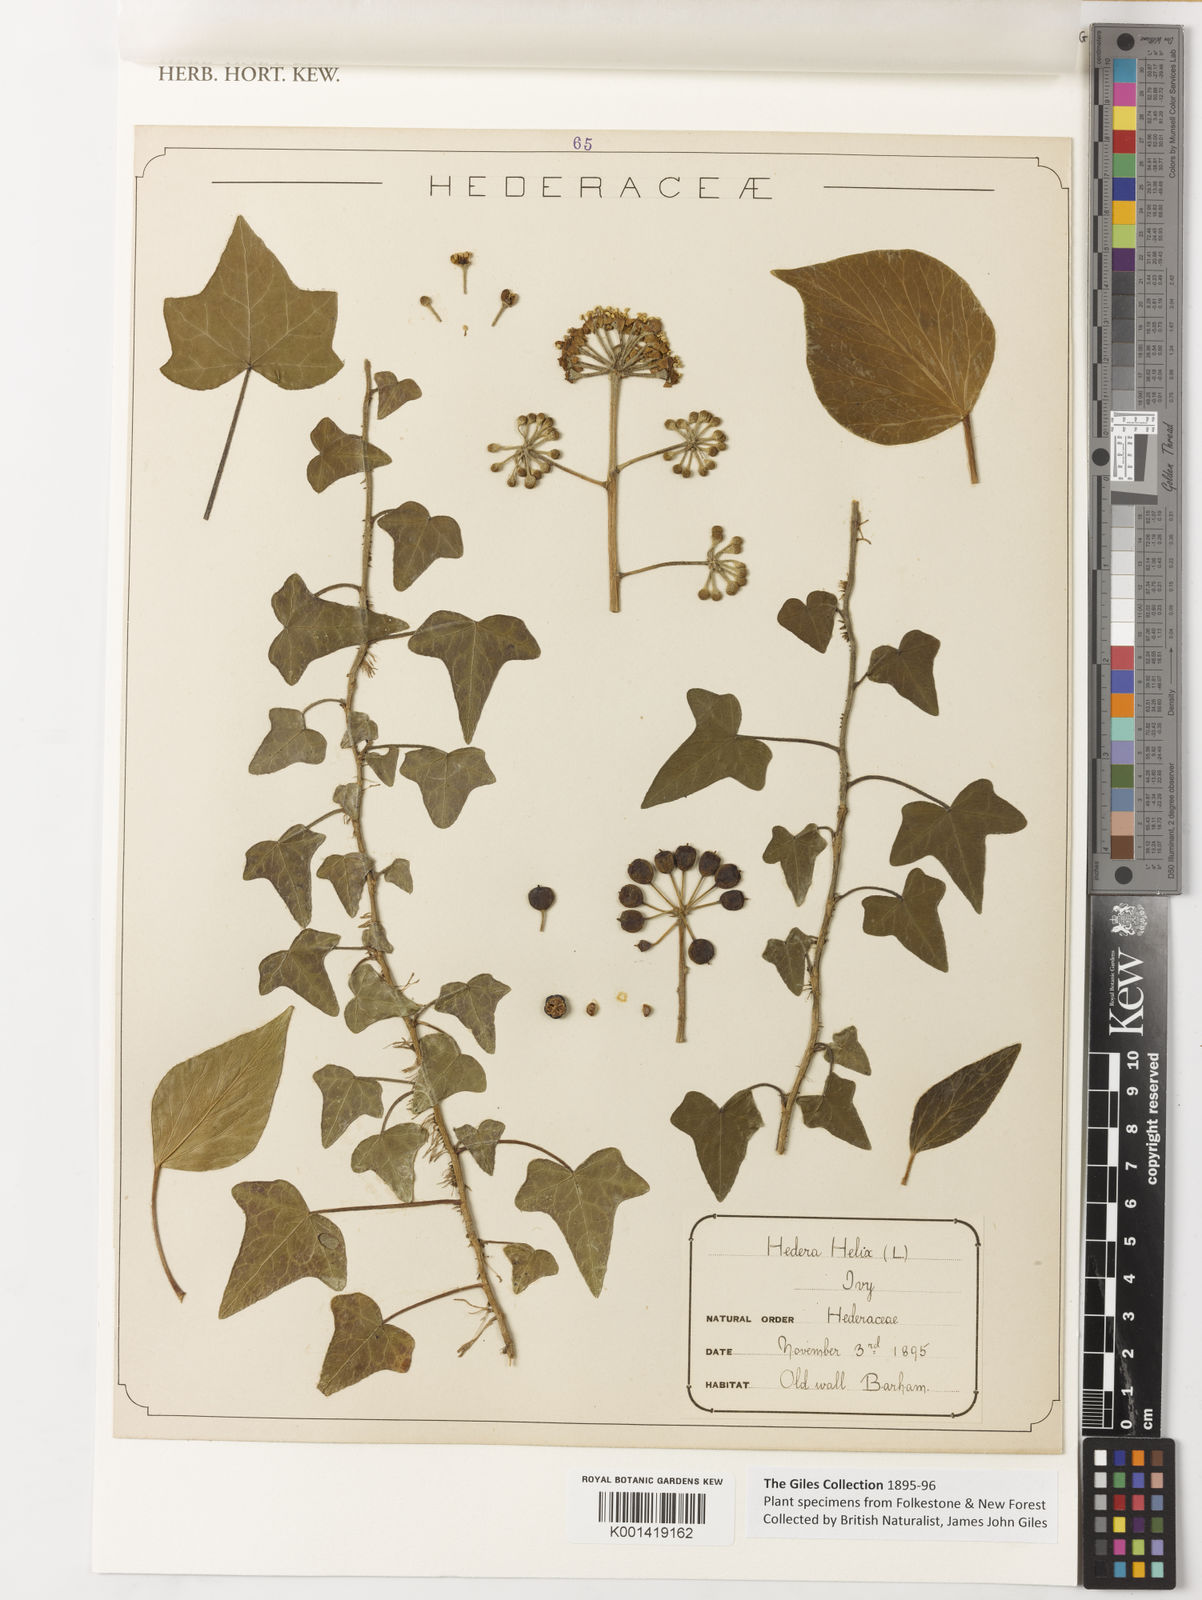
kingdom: Plantae
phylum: Tracheophyta
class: Magnoliopsida
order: Apiales
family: Araliaceae
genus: Hedera
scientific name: Hedera helix
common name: Ivy
